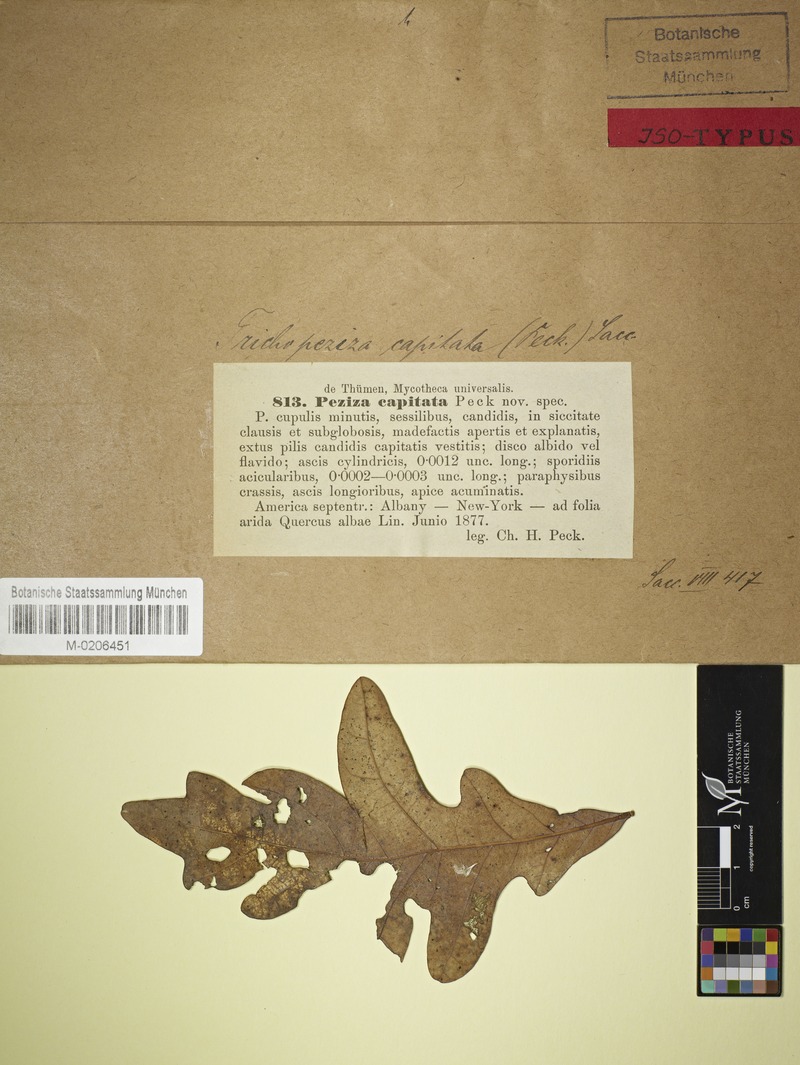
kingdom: Fungi
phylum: Ascomycota
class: Leotiomycetes
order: Helotiales
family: Lachnaceae
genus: Lachnum
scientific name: Lachnum capitatum
